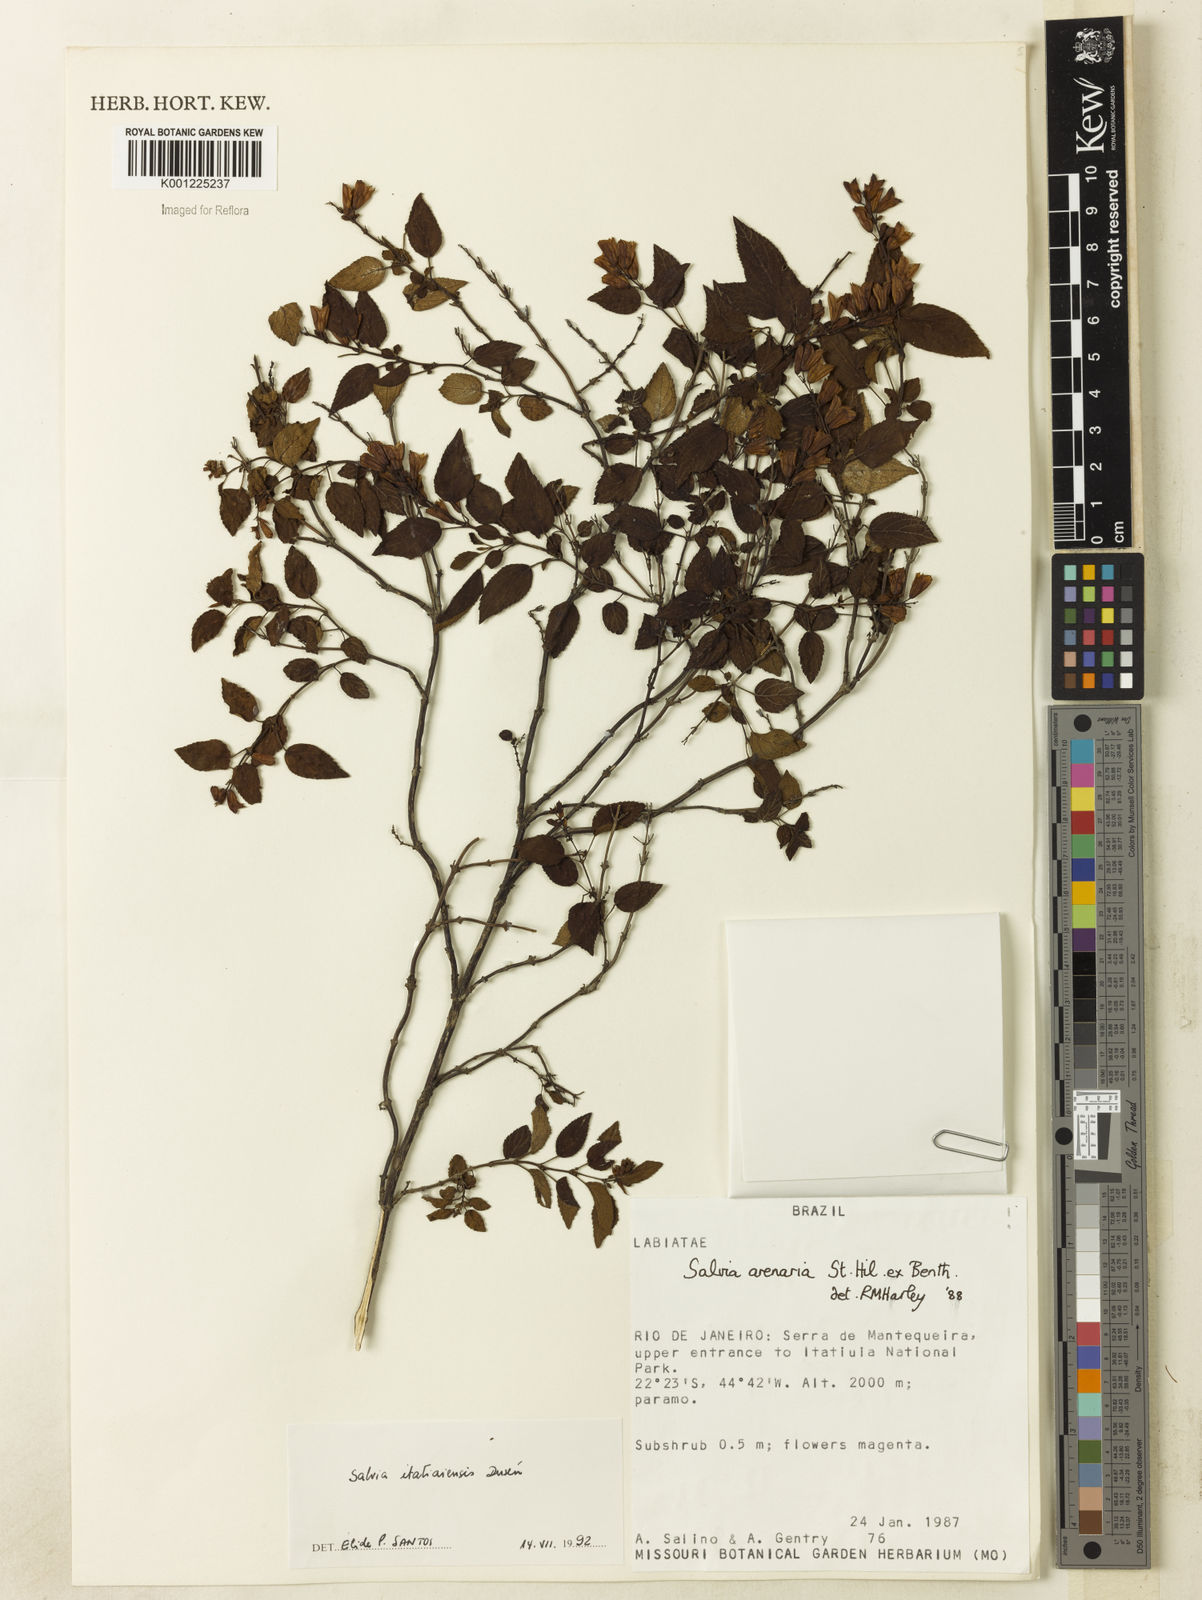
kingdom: Plantae
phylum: Tracheophyta
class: Magnoliopsida
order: Lamiales
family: Lamiaceae
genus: Salvia
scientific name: Salvia
